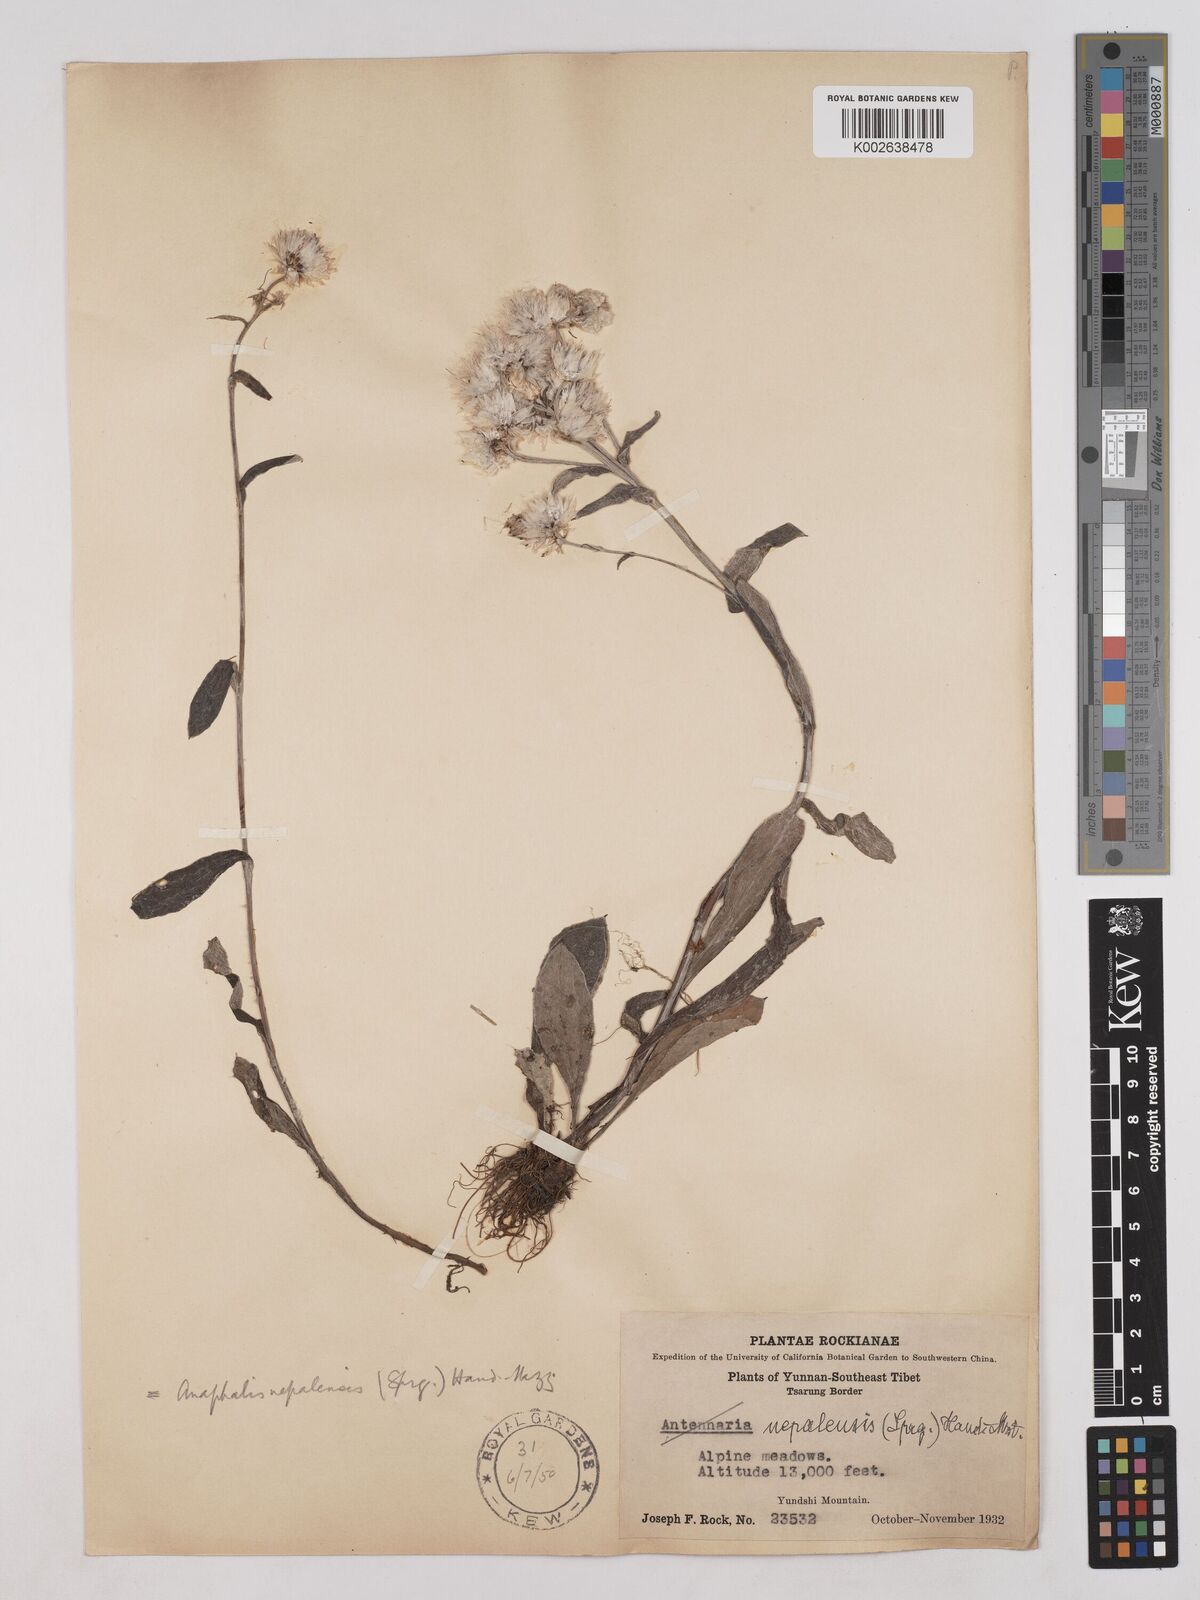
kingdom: Plantae
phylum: Tracheophyta
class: Magnoliopsida
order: Asterales
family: Asteraceae
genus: Anaphalis
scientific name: Anaphalis nepalensis
